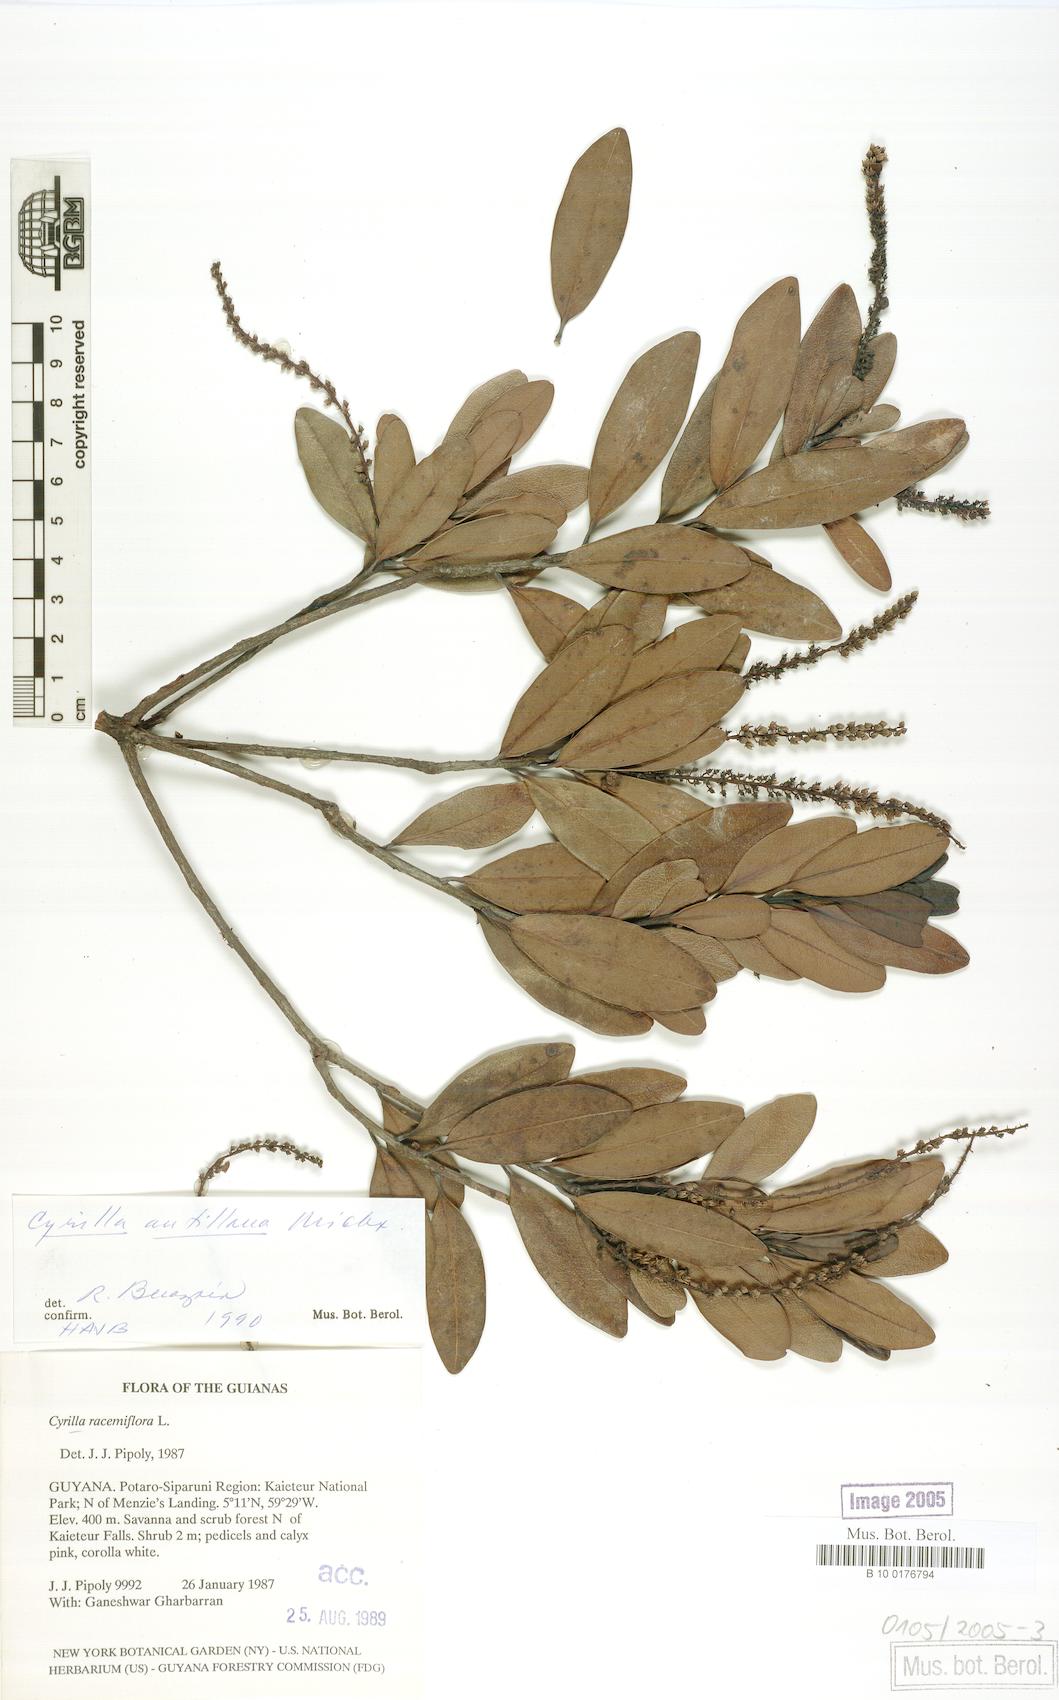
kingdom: Plantae
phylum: Tracheophyta
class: Magnoliopsida
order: Ericales
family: Cyrillaceae
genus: Cyrilla
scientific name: Cyrilla racemiflora
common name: Black titi
